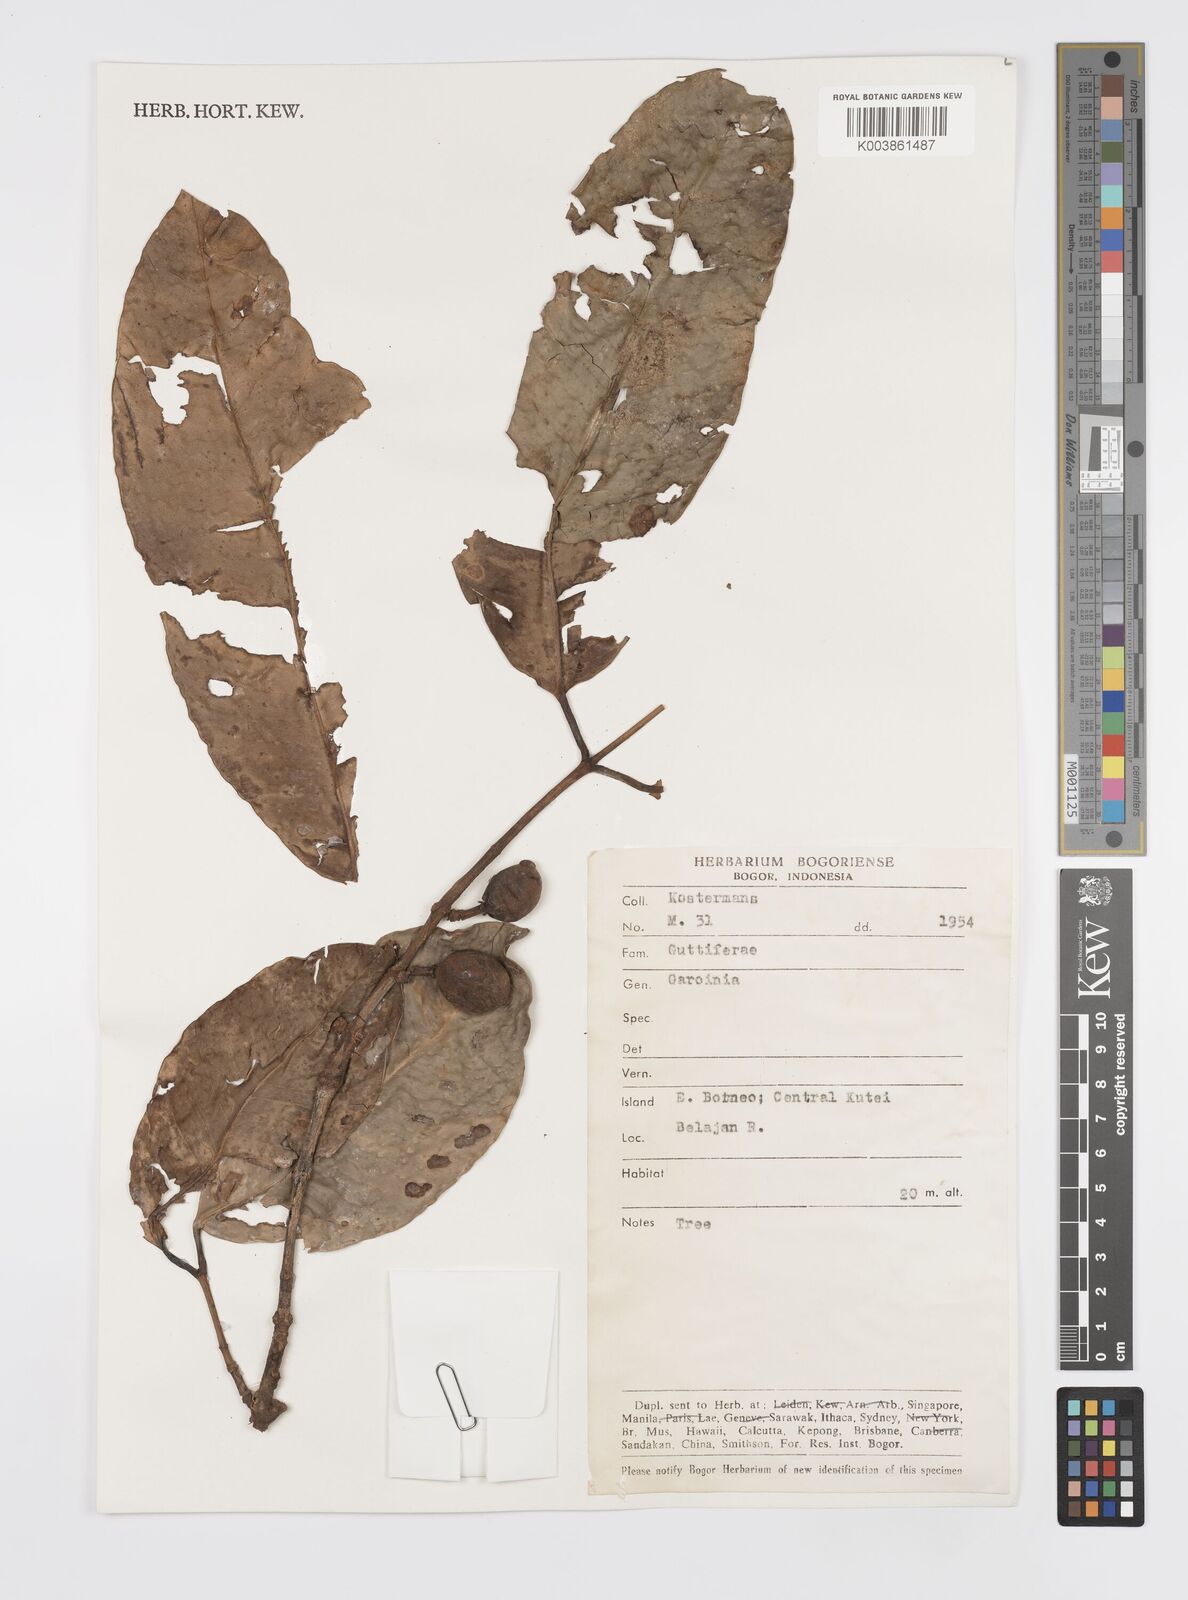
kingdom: Plantae
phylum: Tracheophyta
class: Magnoliopsida
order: Malpighiales
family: Clusiaceae
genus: Garcinia
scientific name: Garcinia
